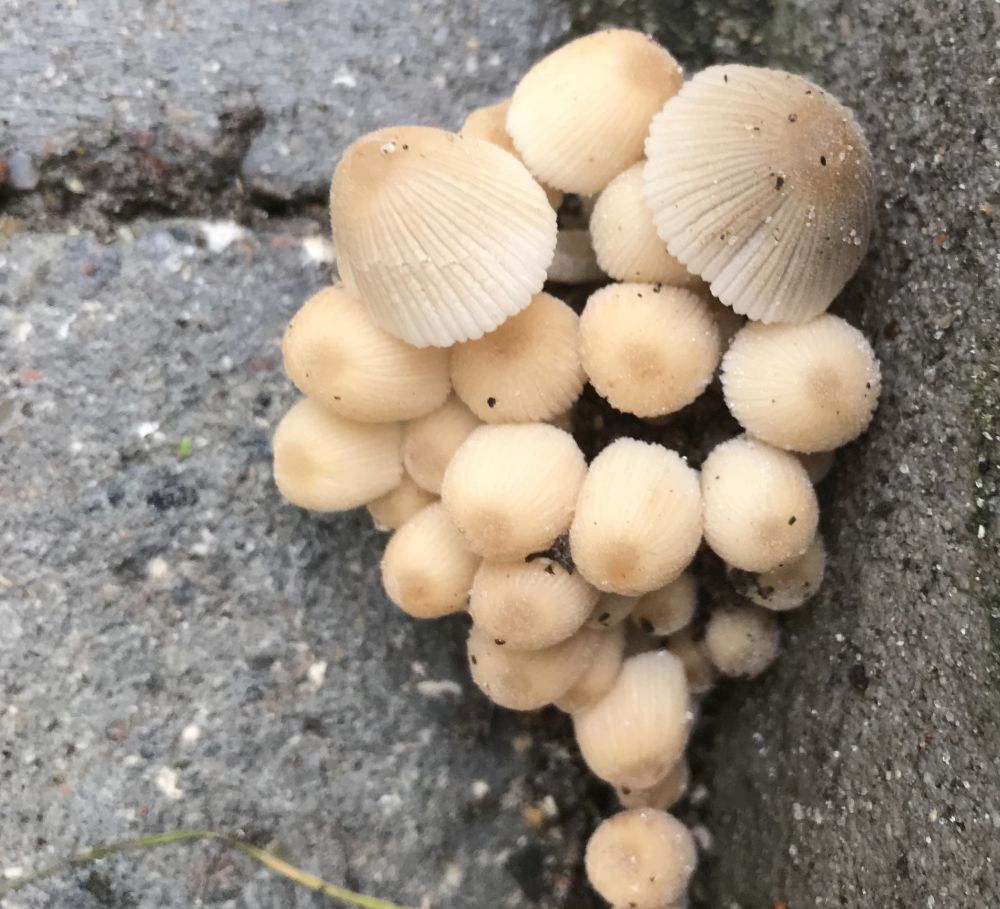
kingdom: Fungi
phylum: Basidiomycota
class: Agaricomycetes
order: Agaricales
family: Psathyrellaceae
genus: Coprinellus
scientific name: Coprinellus disseminatus
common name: bredsået blækhat
